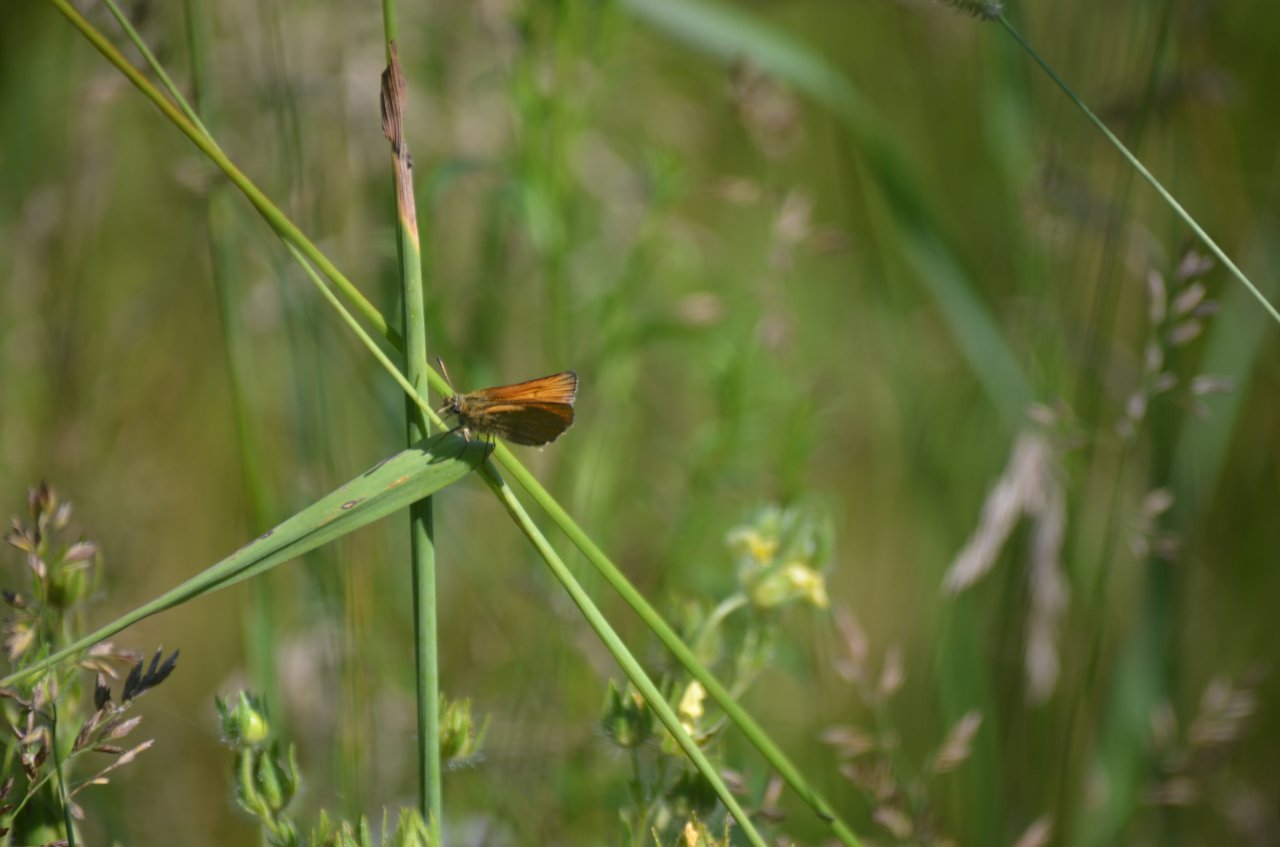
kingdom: Animalia
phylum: Arthropoda
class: Insecta
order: Lepidoptera
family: Hesperiidae
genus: Thymelicus
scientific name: Thymelicus lineola
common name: European Skipper
